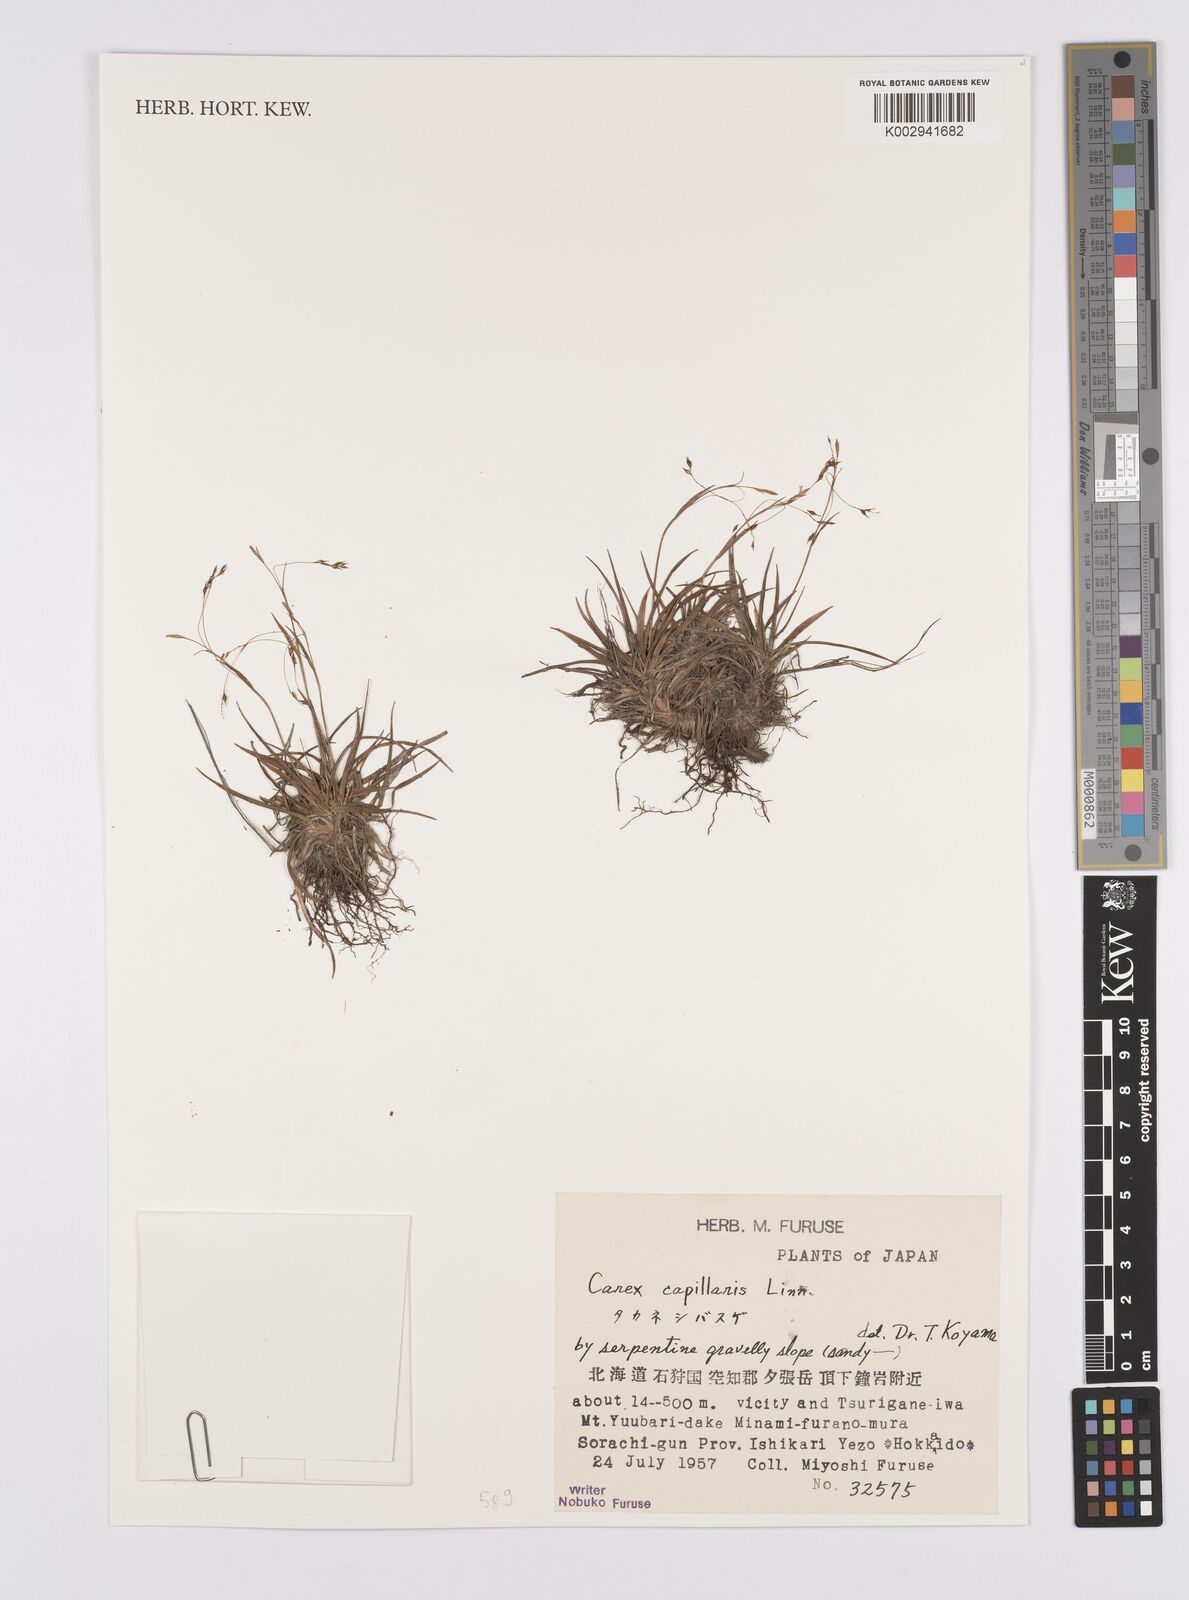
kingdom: Plantae
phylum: Tracheophyta
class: Liliopsida
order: Poales
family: Cyperaceae
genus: Carex
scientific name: Carex capillaris
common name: Hair sedge
